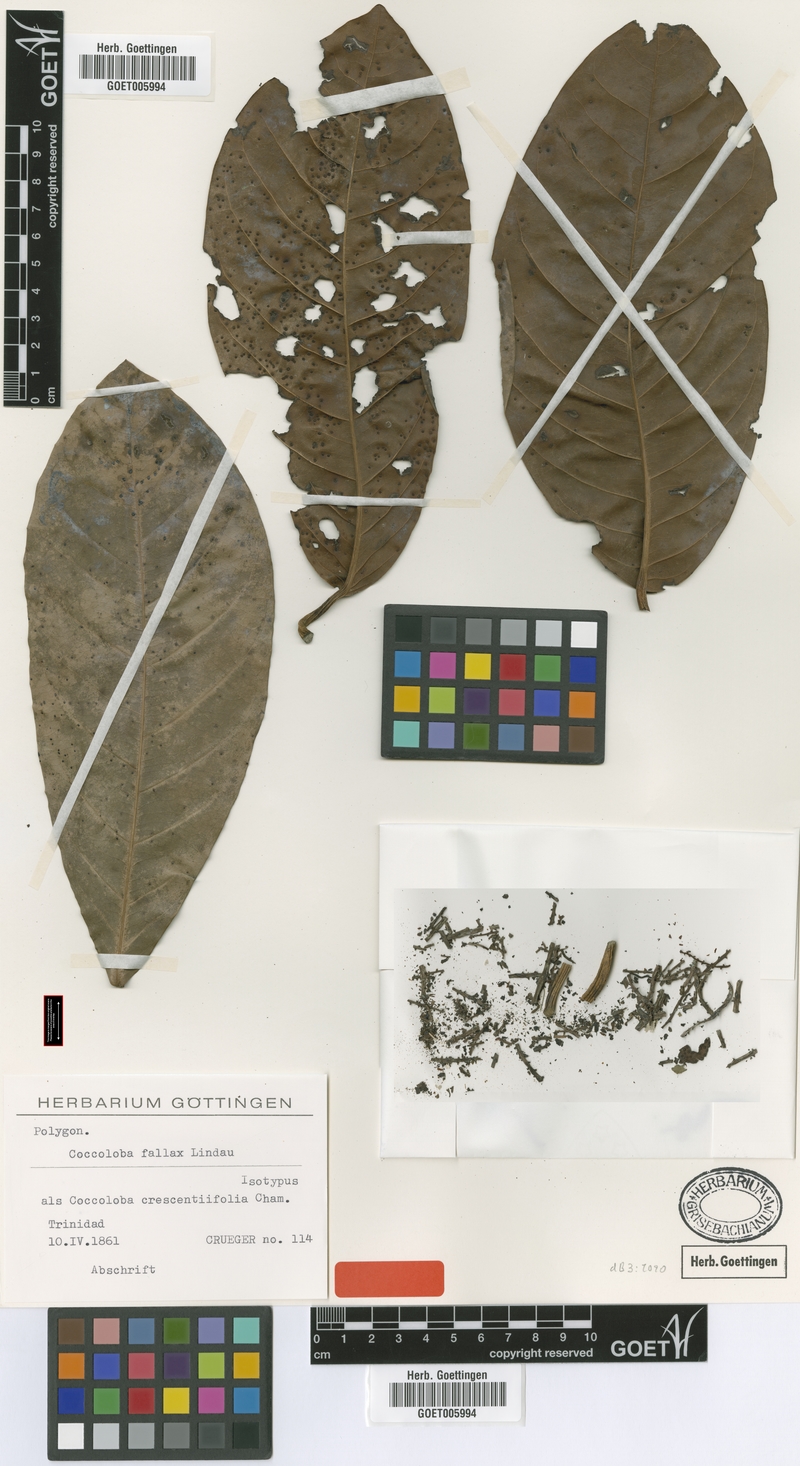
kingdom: Plantae
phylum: Tracheophyta
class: Magnoliopsida
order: Caryophyllales
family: Polygonaceae
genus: Coccoloba
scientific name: Coccoloba fallax
